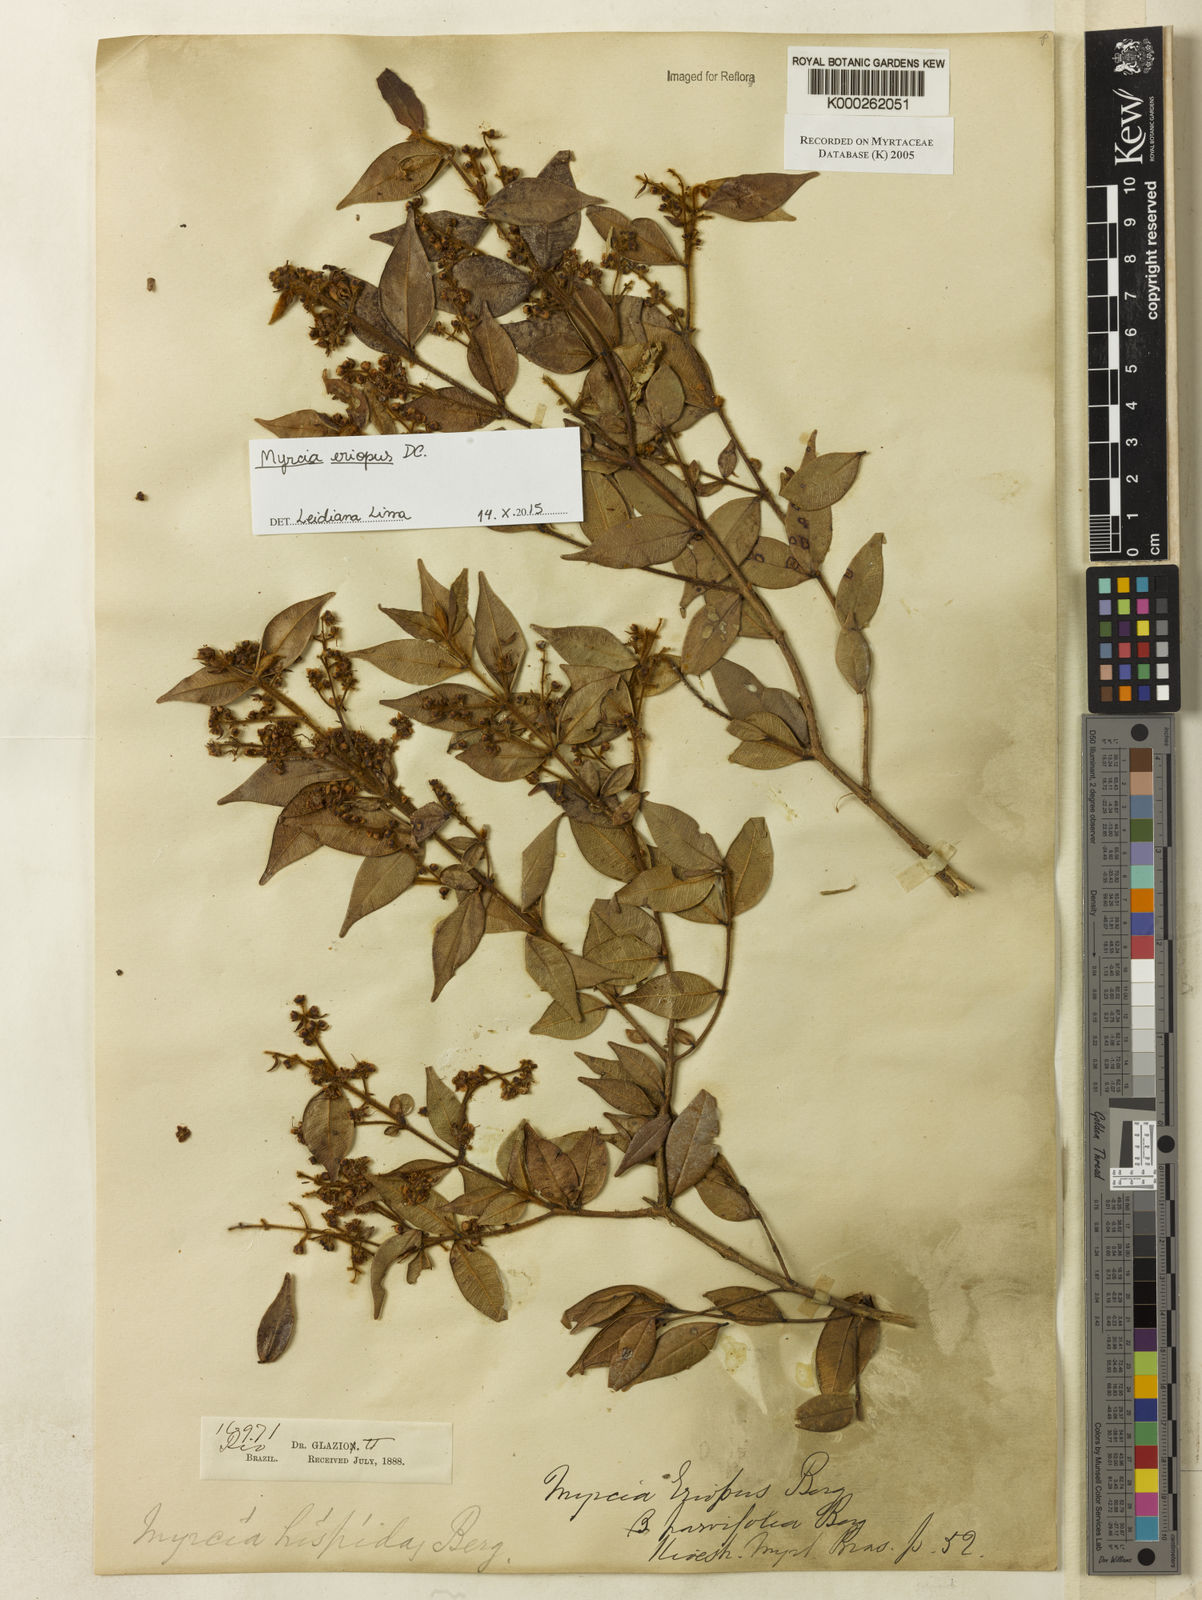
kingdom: Plantae
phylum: Tracheophyta
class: Magnoliopsida
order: Myrtales
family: Myrtaceae
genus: Myrcia
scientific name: Myrcia eriopus
